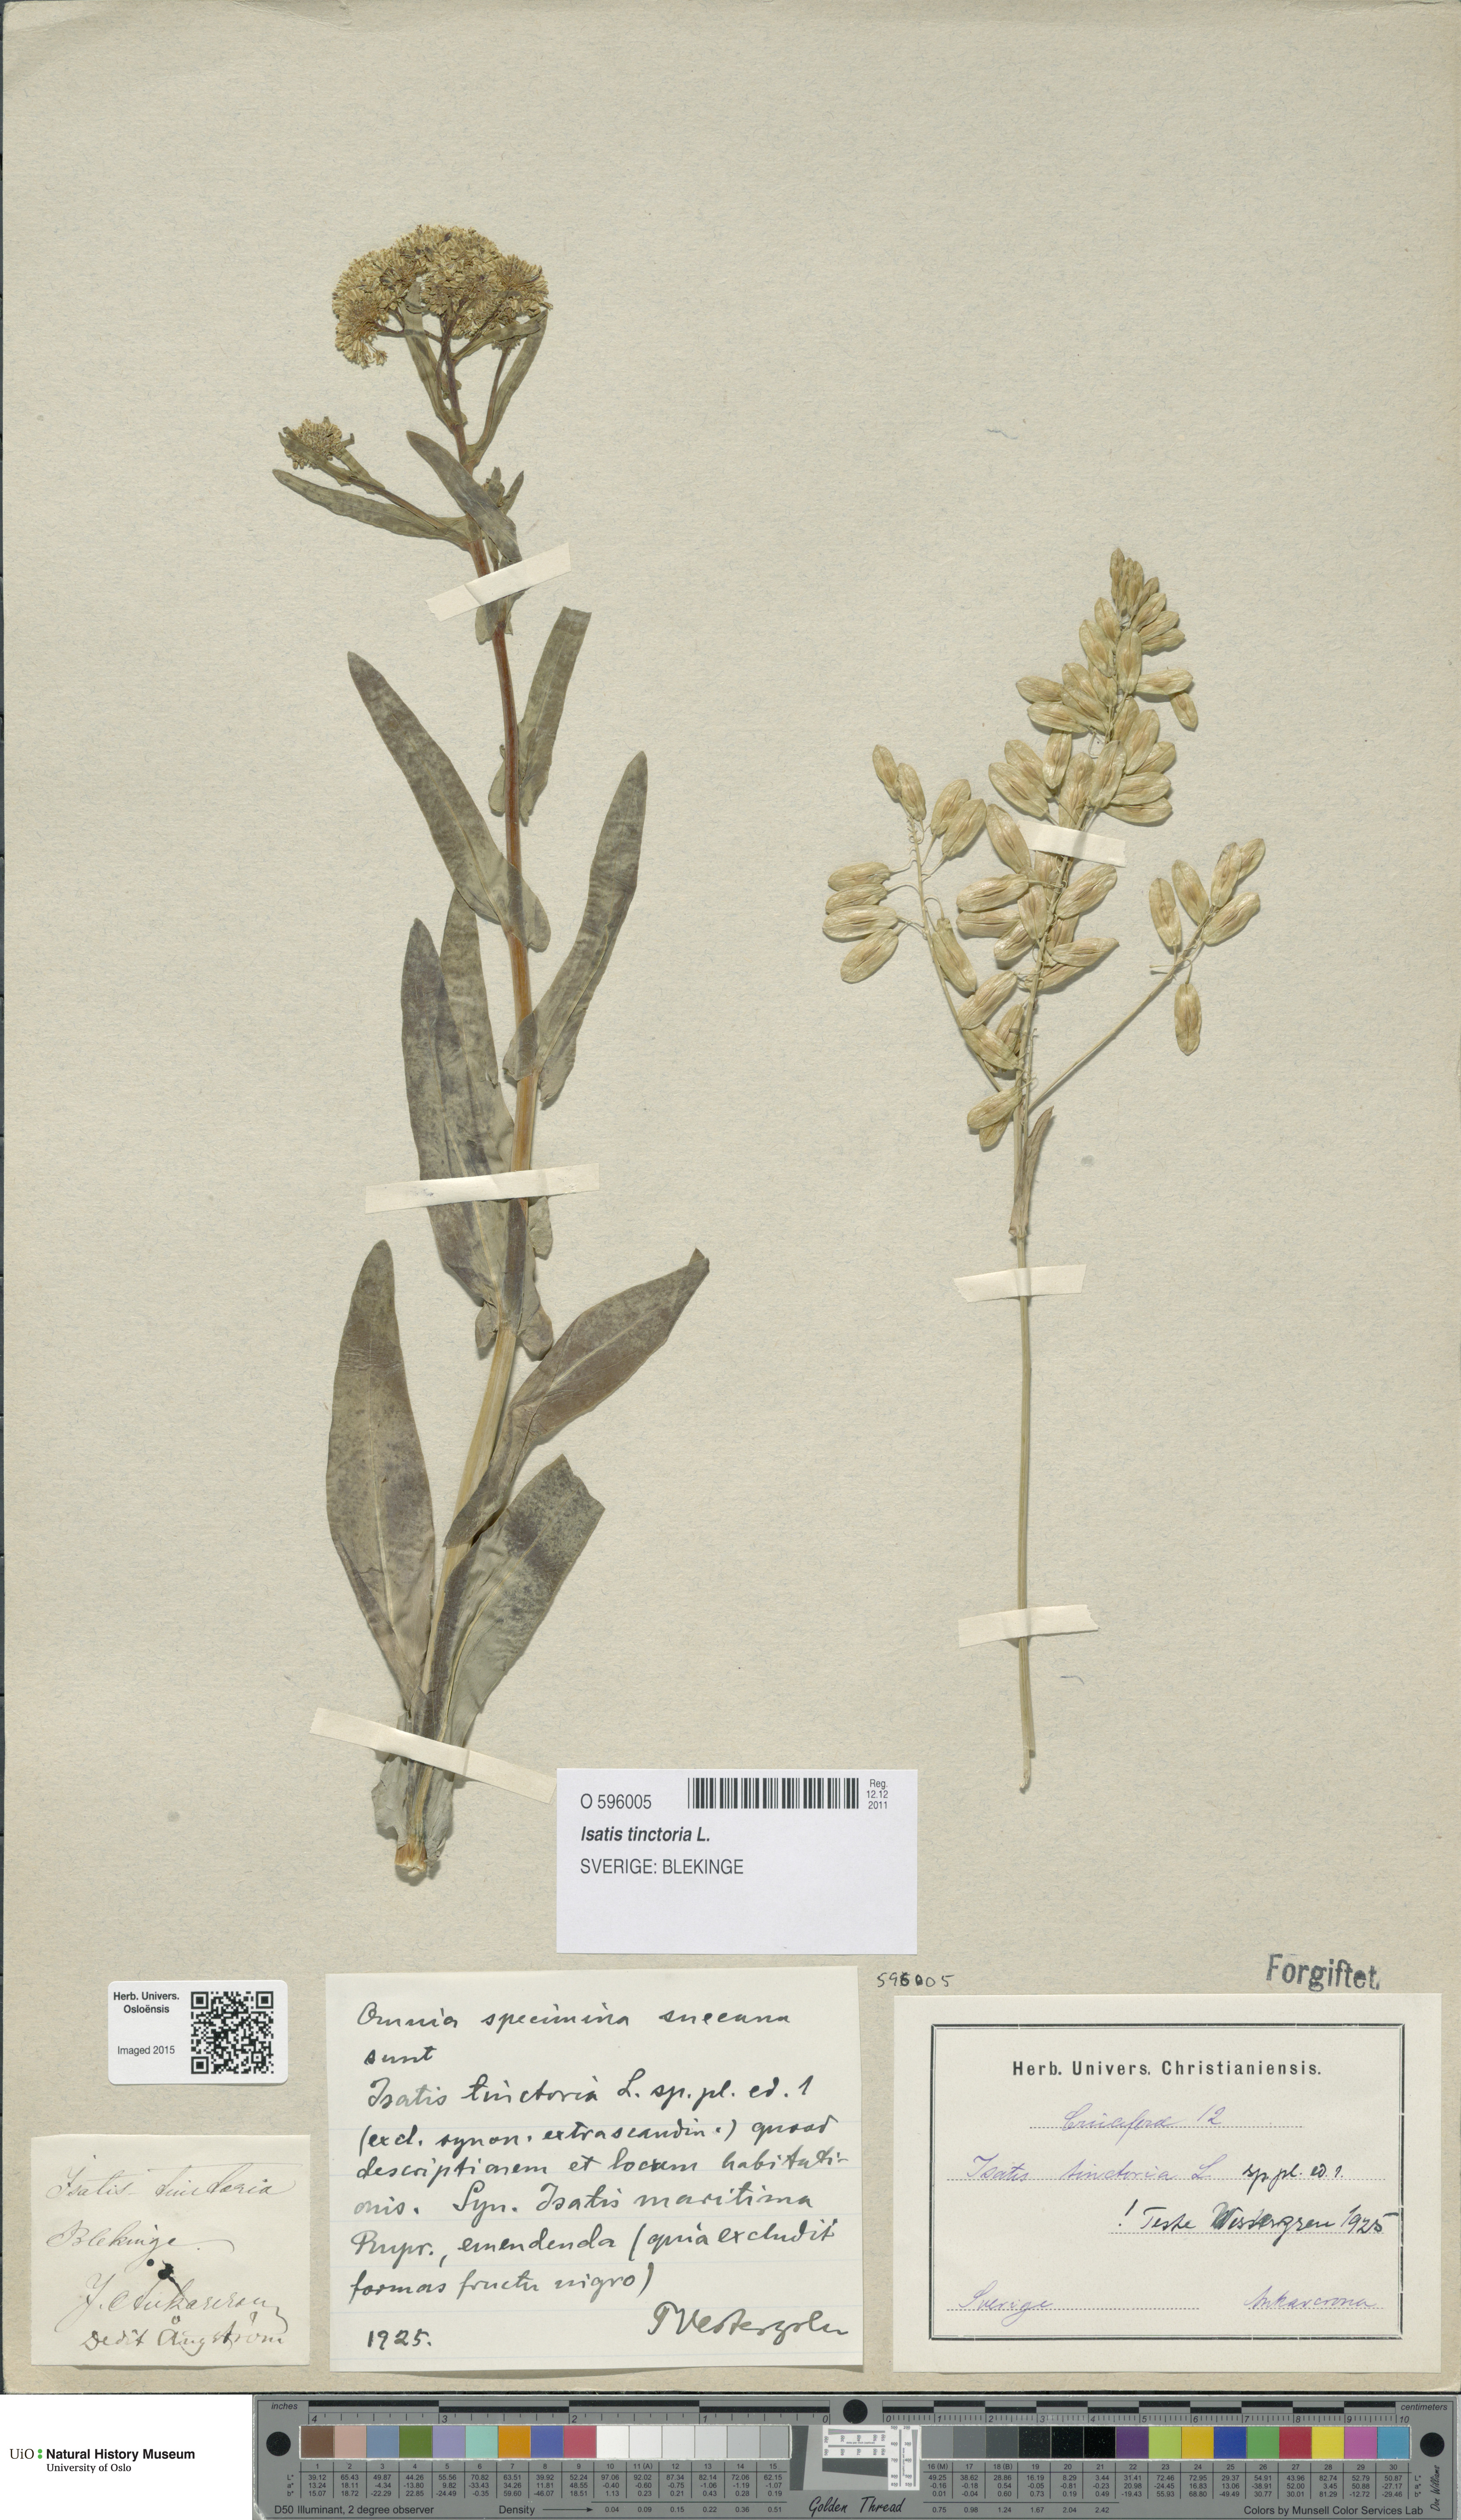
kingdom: Plantae
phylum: Tracheophyta
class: Magnoliopsida
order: Brassicales
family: Brassicaceae
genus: Isatis
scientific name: Isatis tinctoria
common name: Woad
